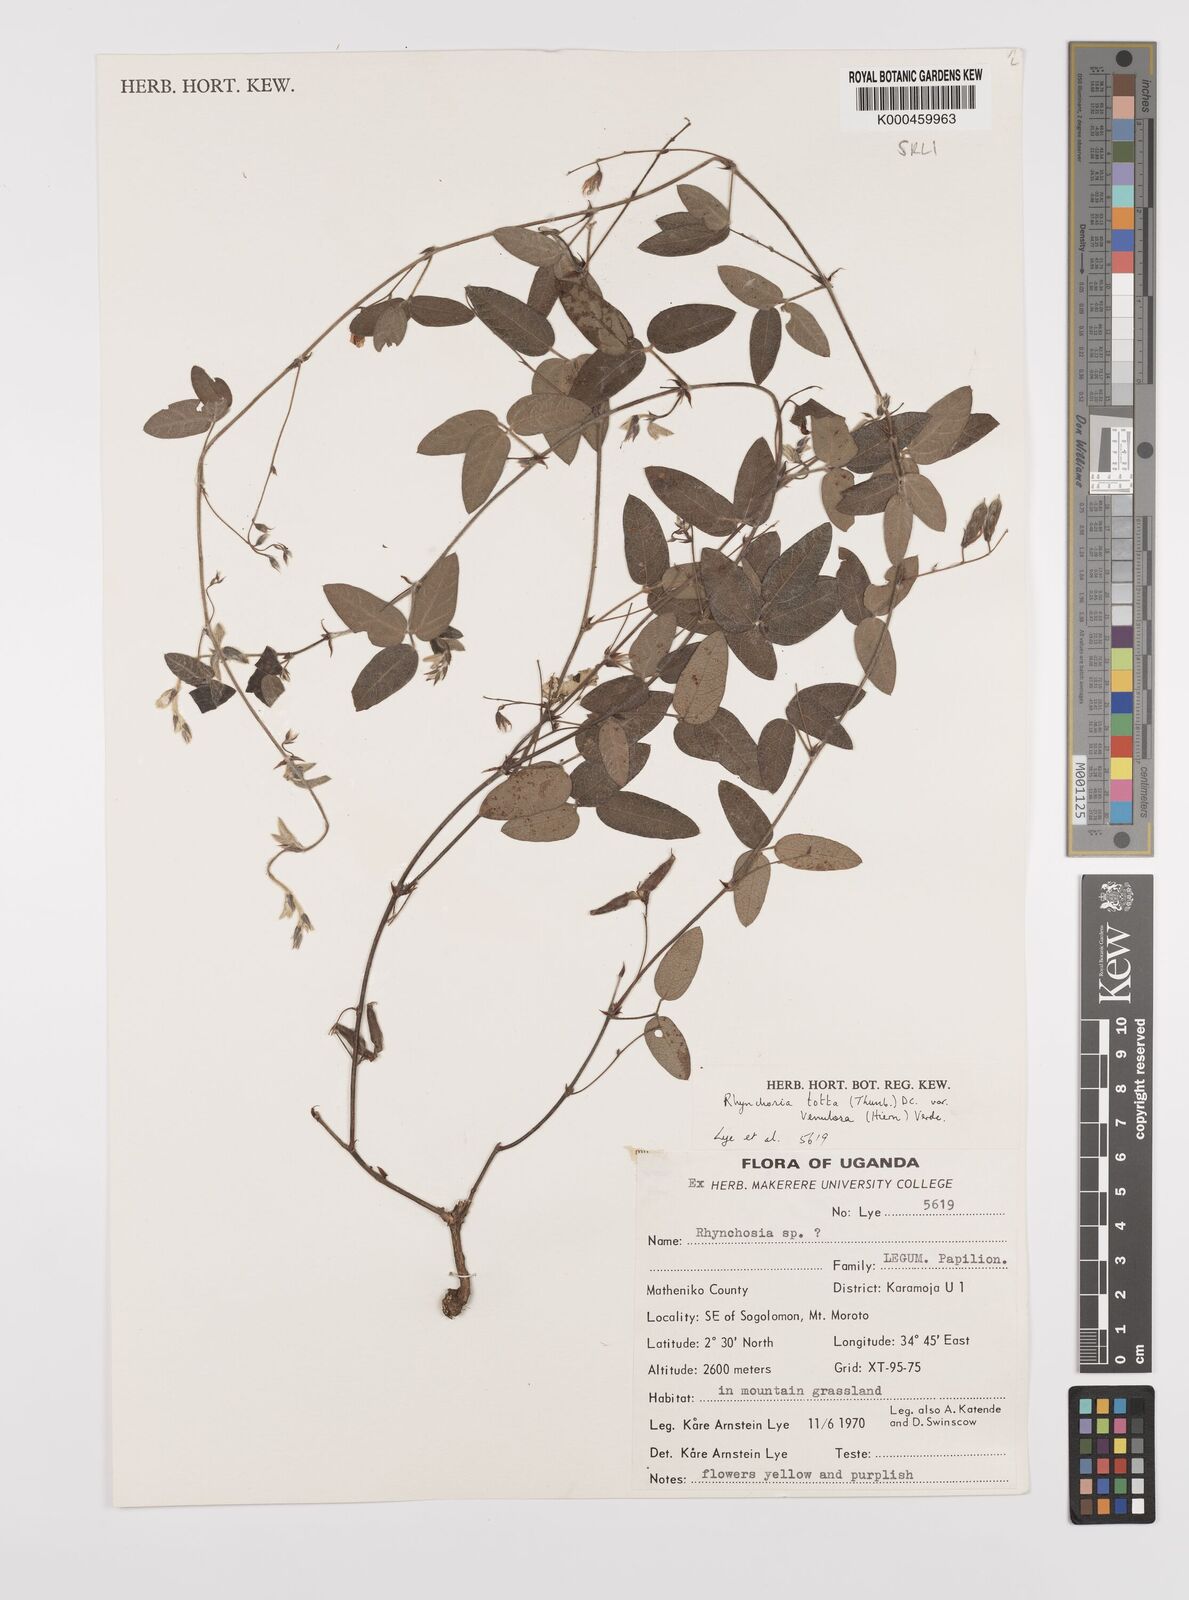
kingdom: Plantae
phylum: Tracheophyta
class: Magnoliopsida
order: Fabales
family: Fabaceae
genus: Rhynchosia
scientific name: Rhynchosia totta
